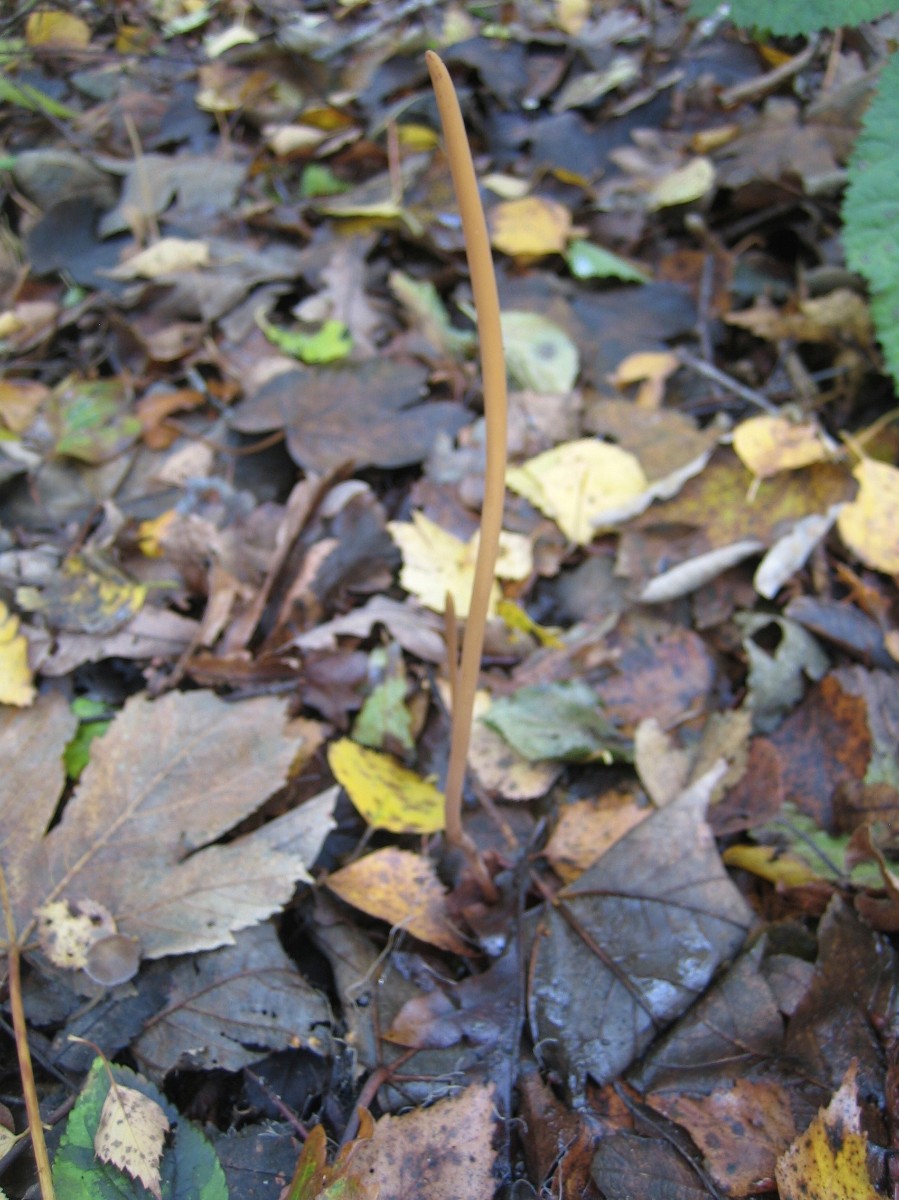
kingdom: Fungi
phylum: Basidiomycota
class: Agaricomycetes
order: Agaricales
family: Typhulaceae
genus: Typhula
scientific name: Typhula fistulosa
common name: pibet rørkølle
